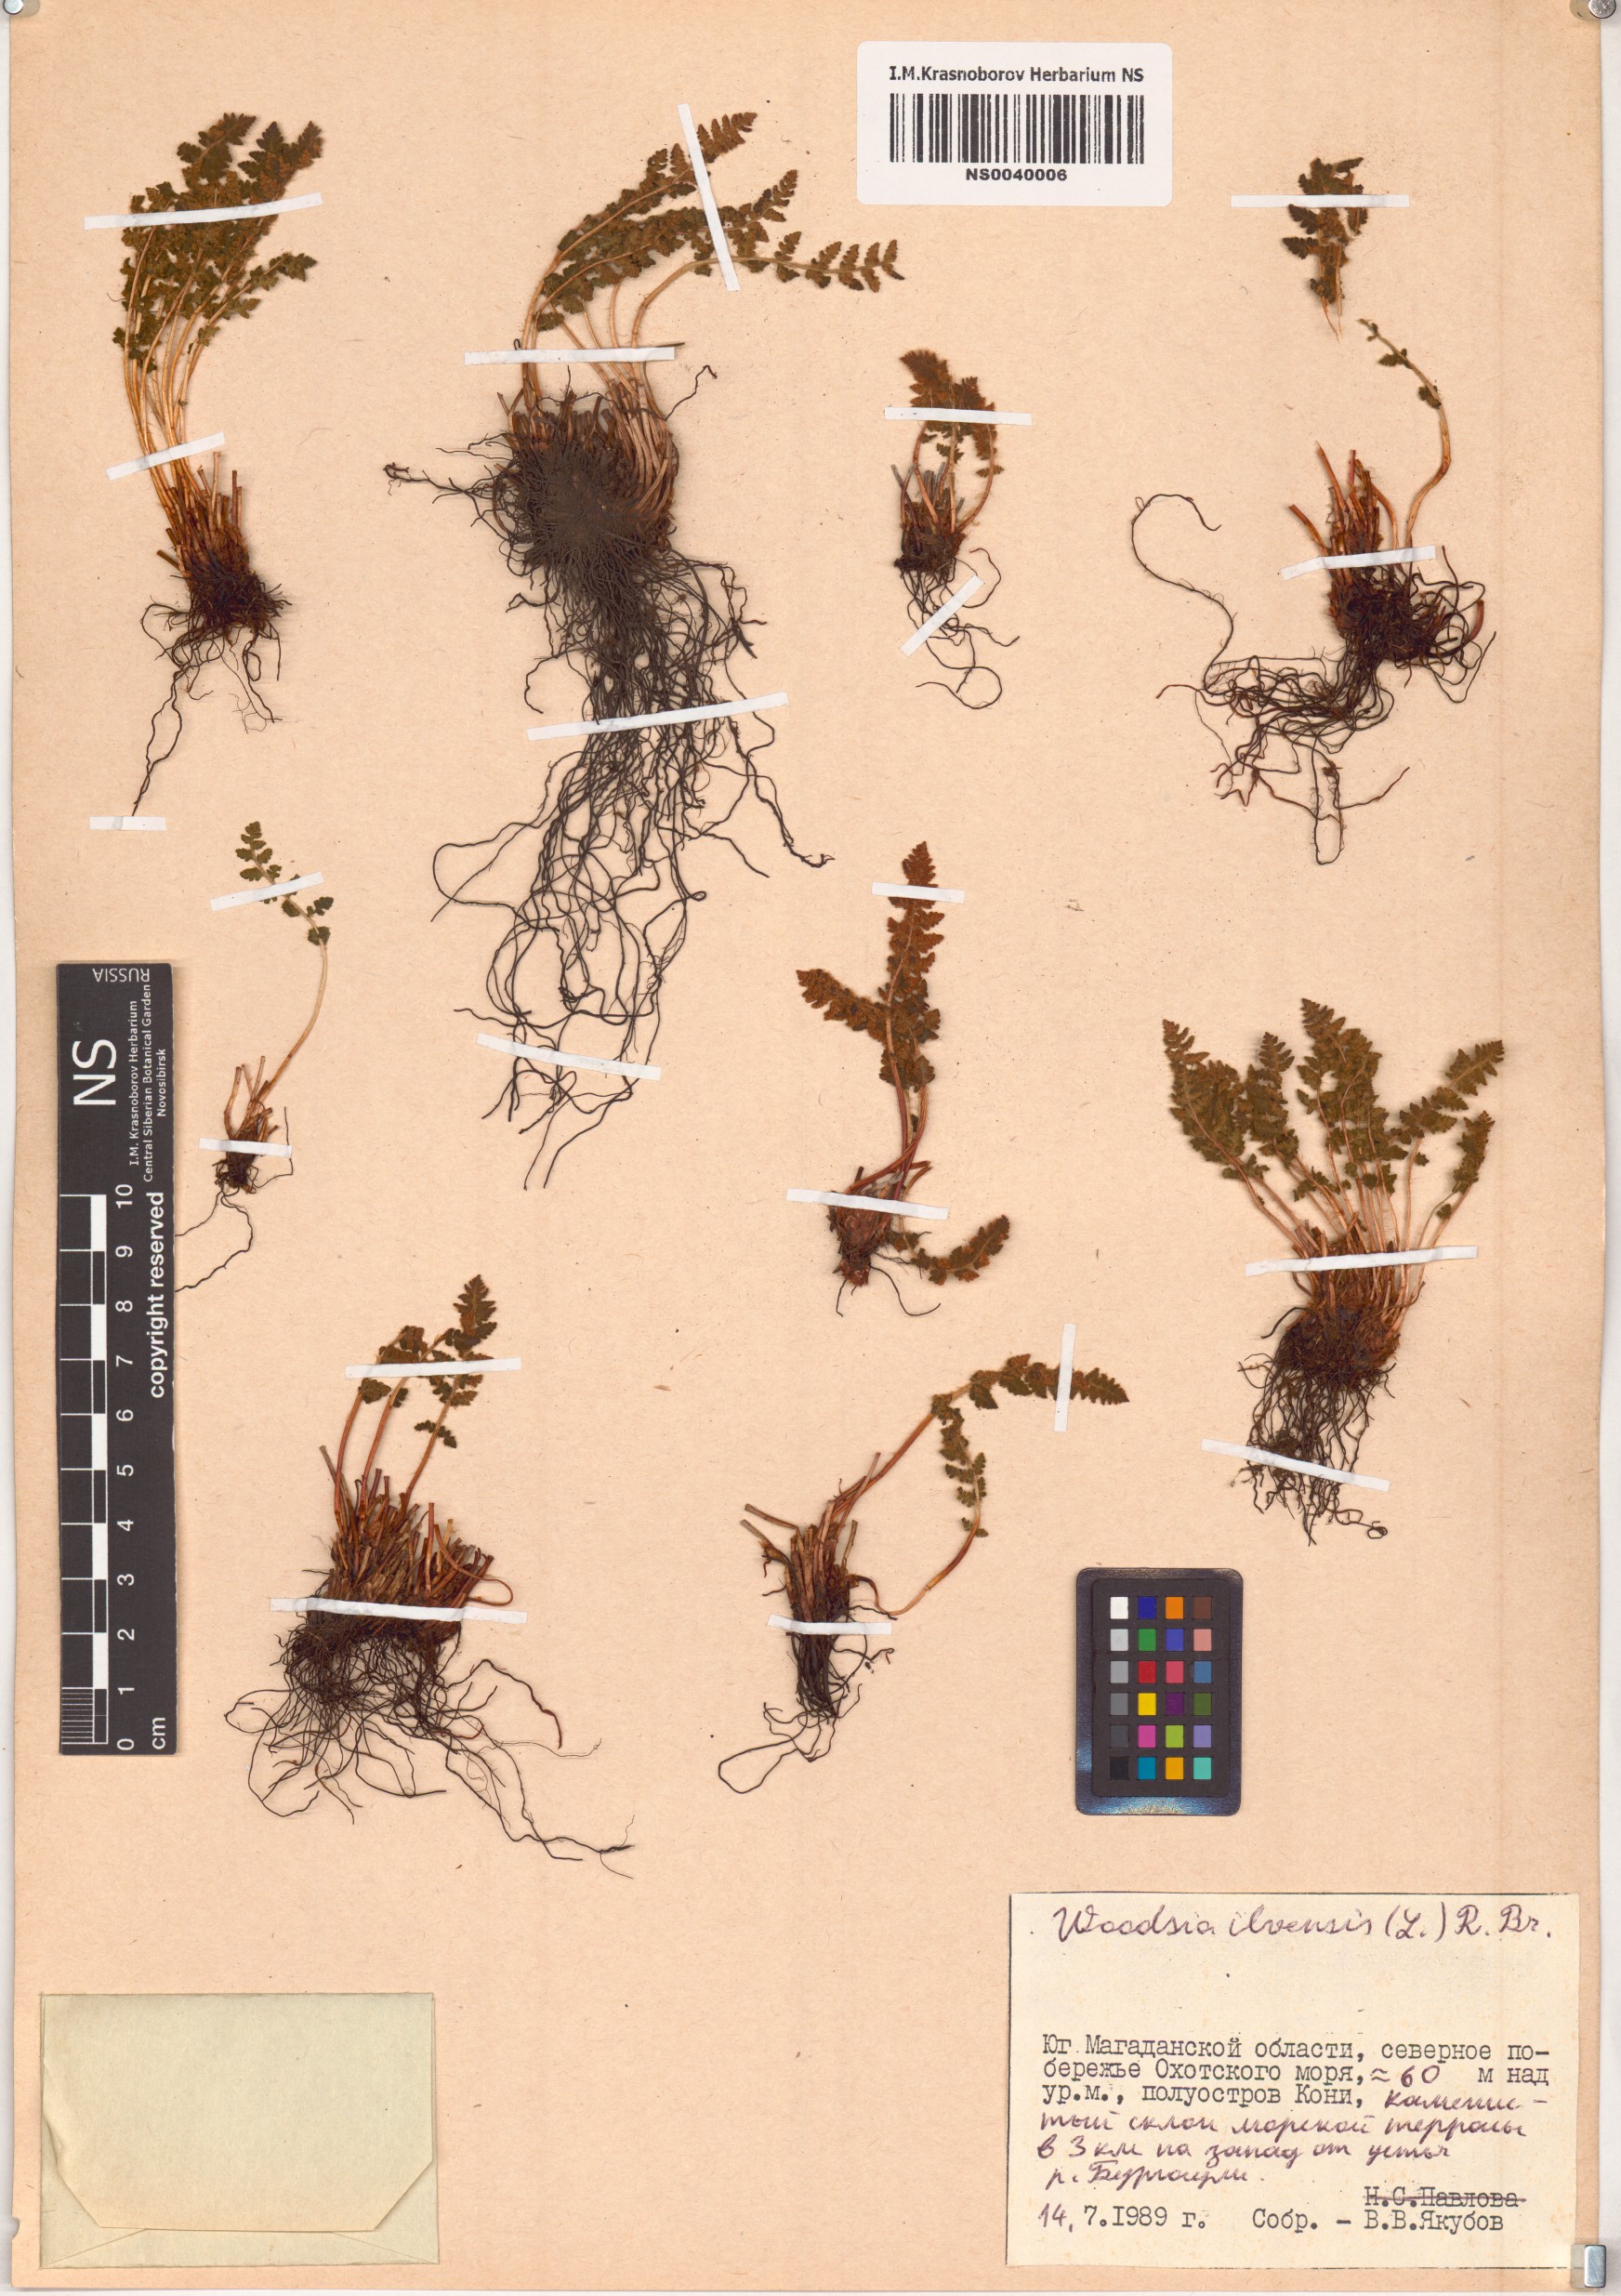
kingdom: Plantae
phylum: Tracheophyta
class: Polypodiopsida
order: Polypodiales
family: Woodsiaceae
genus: Woodsia
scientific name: Woodsia ilvensis
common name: Fragrant woodsia
